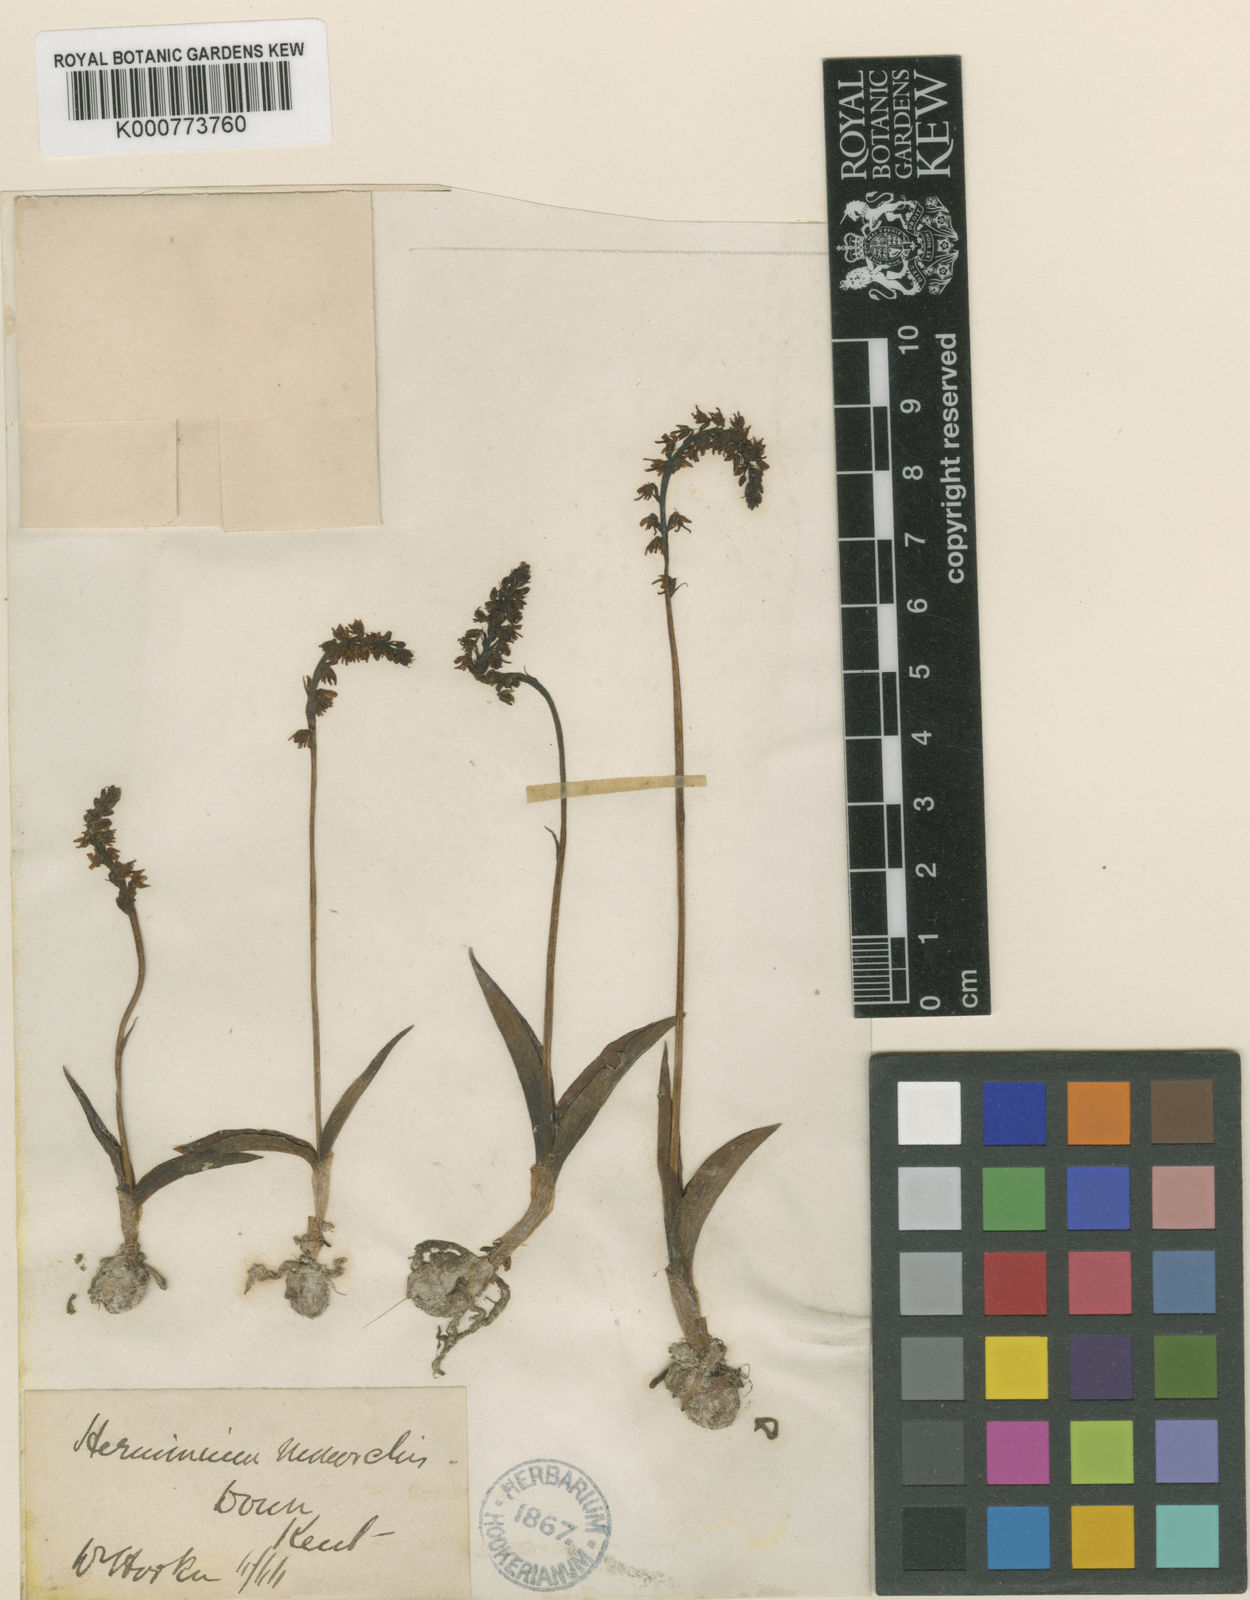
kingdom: Plantae
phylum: Tracheophyta
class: Liliopsida
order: Asparagales
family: Orchidaceae
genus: Herminium
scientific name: Herminium monorchis
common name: Musk orchid
